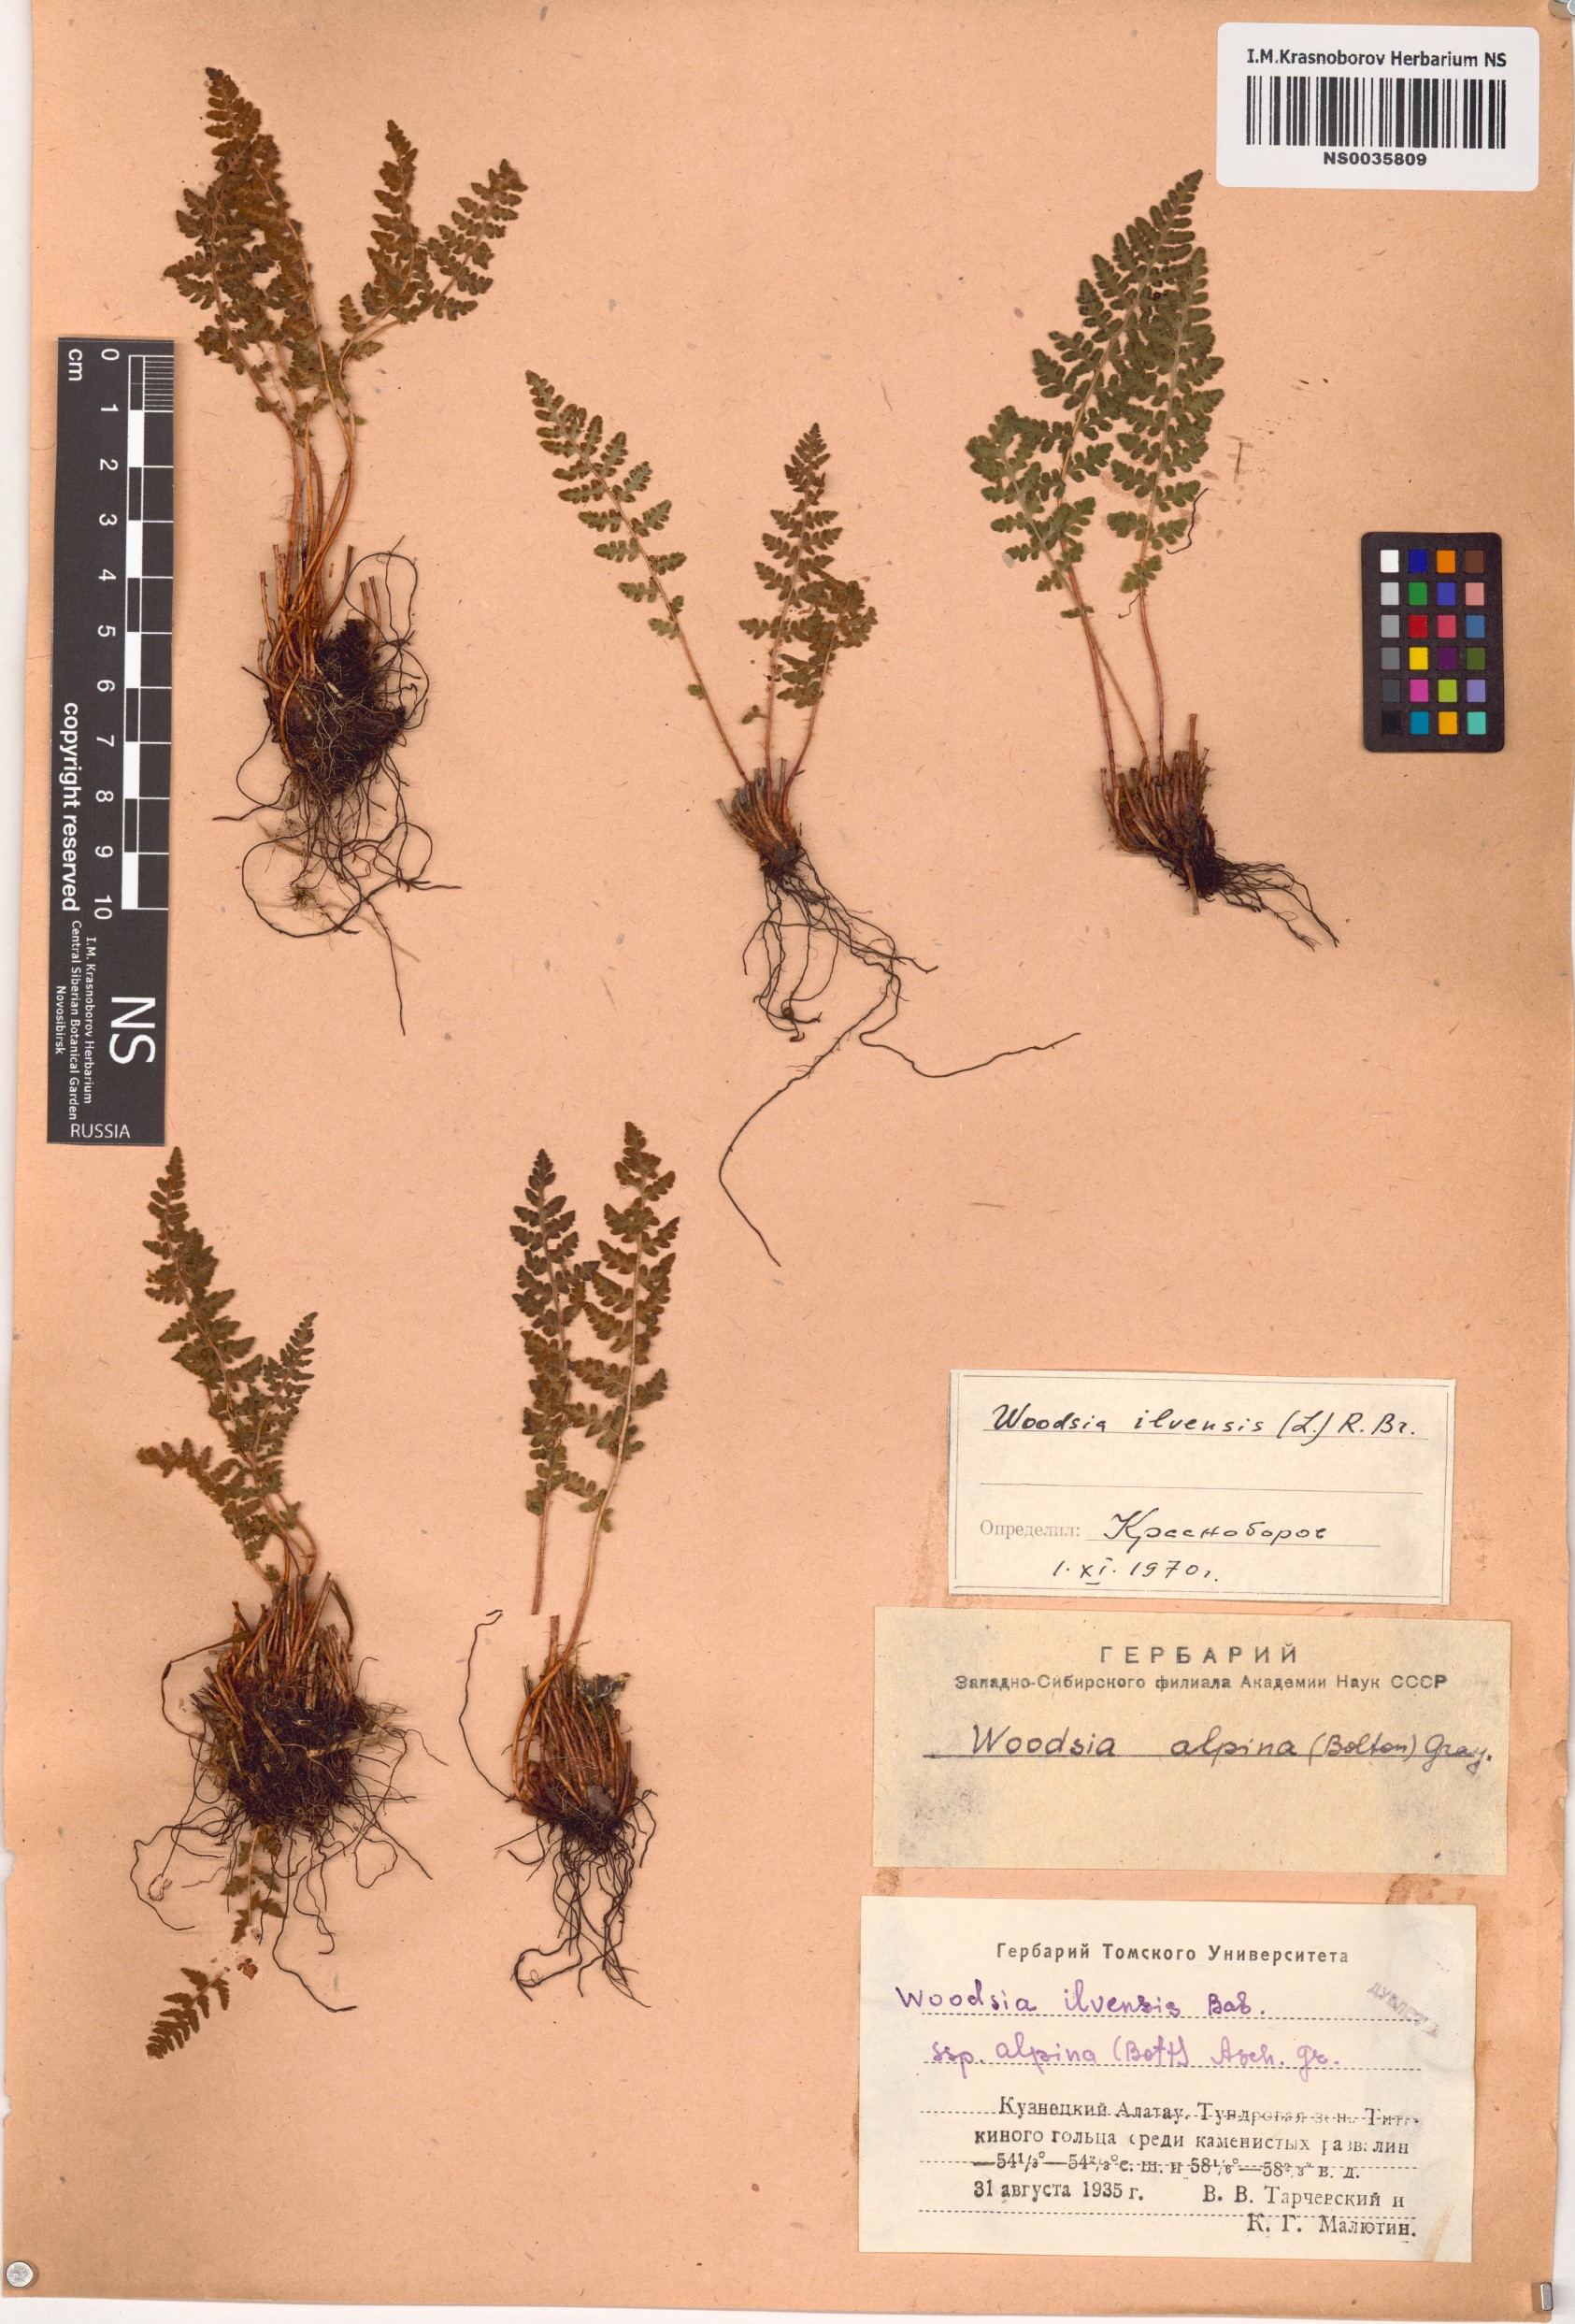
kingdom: Plantae
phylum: Tracheophyta
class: Polypodiopsida
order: Polypodiales
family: Woodsiaceae
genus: Woodsia
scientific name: Woodsia ilvensis
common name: Fragrant woodsia
